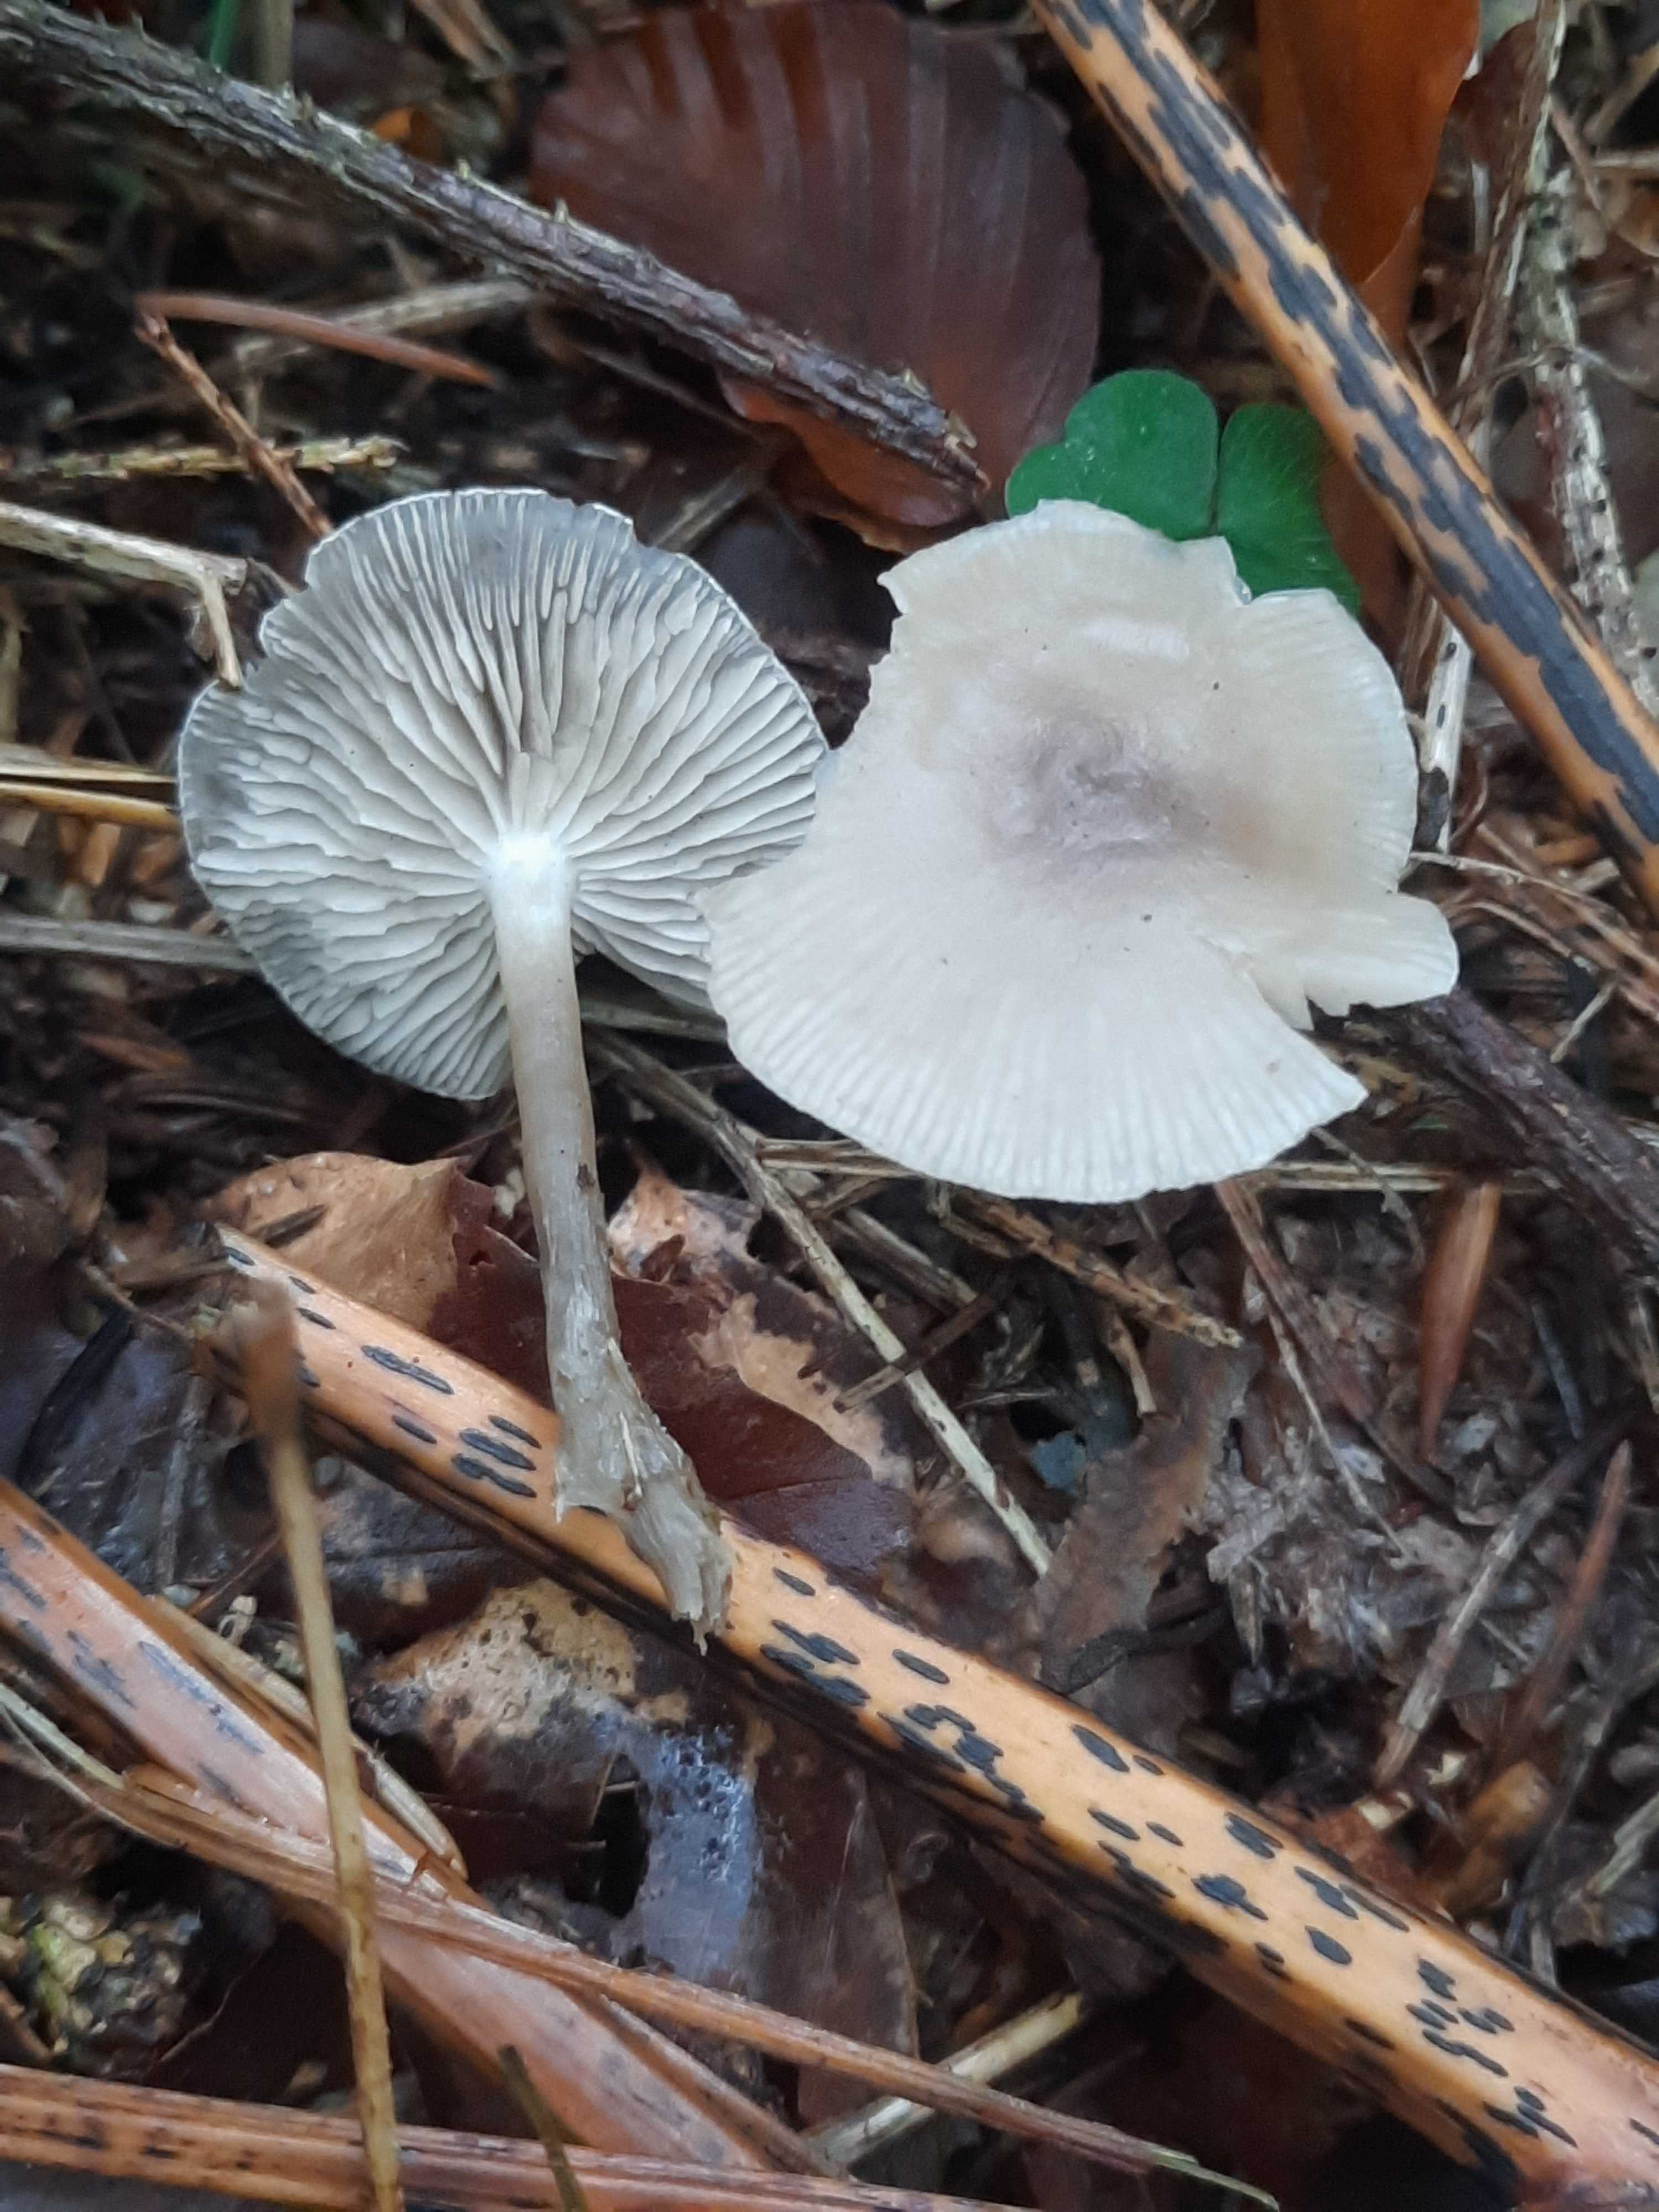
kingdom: Fungi
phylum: Basidiomycota
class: Agaricomycetes
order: Agaricales
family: Tricholomataceae
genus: Clitocybe
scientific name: Clitocybe
